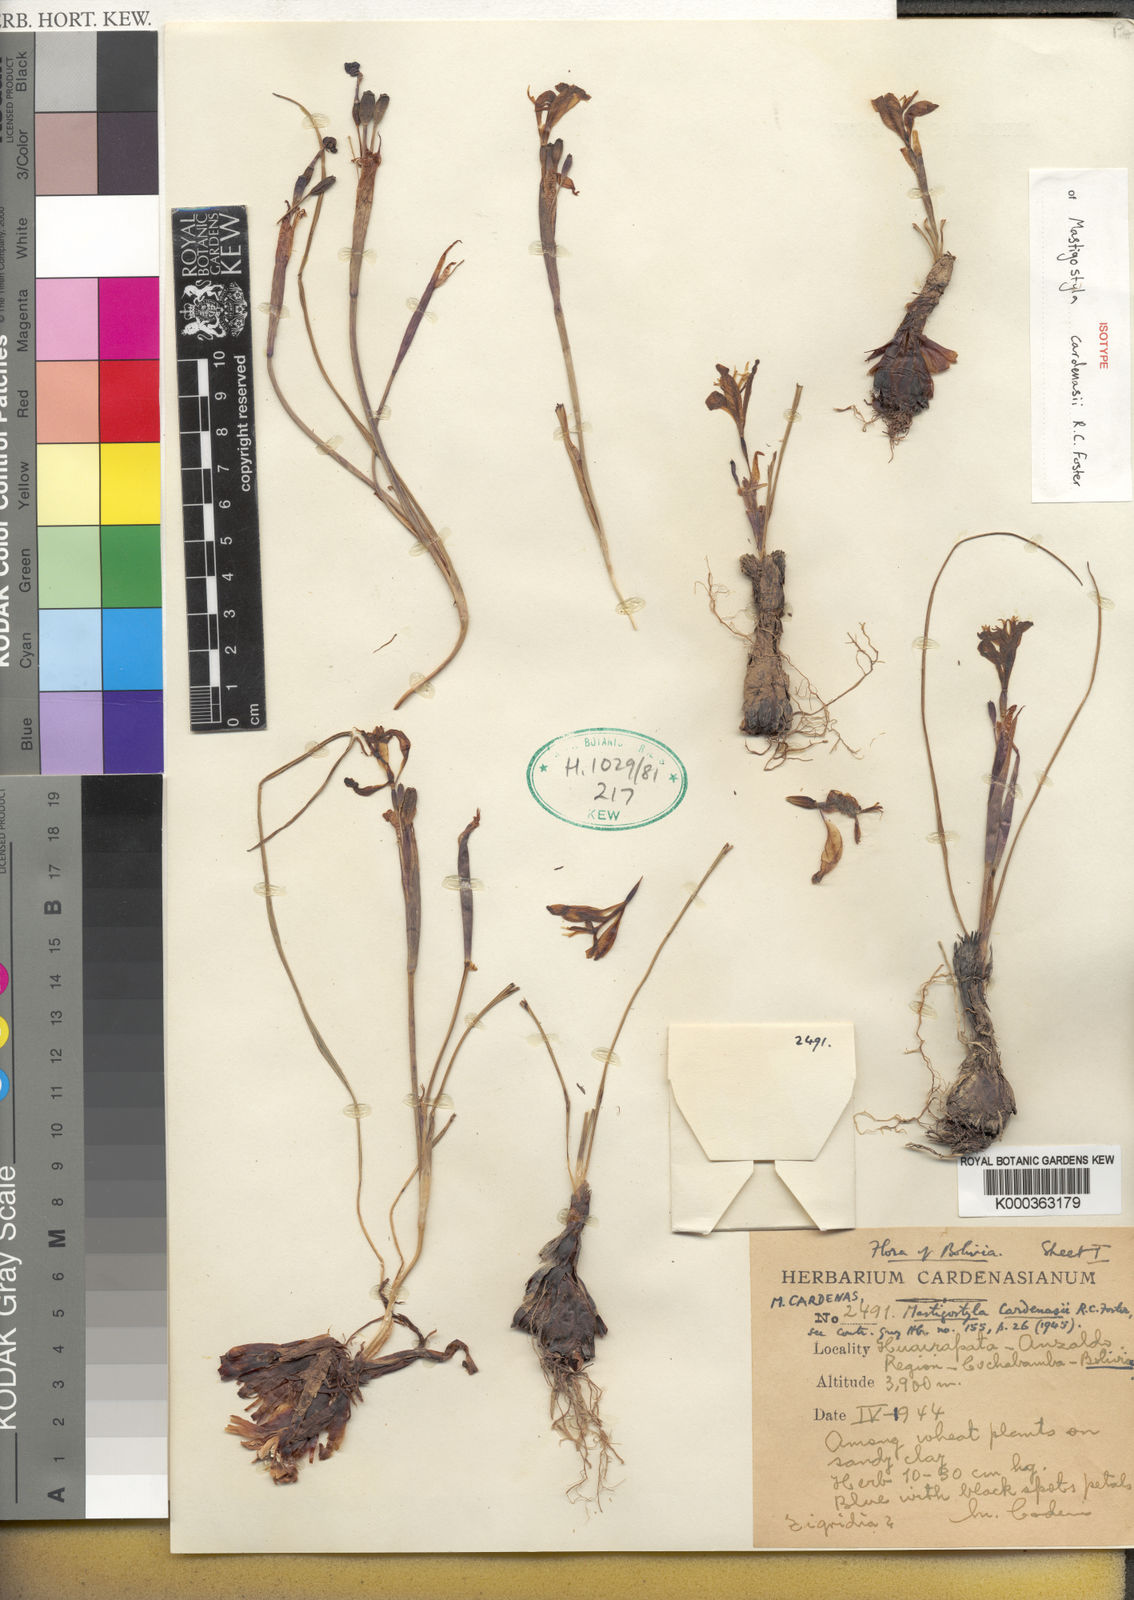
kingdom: Plantae
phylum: Tracheophyta
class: Liliopsida
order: Asparagales
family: Iridaceae
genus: Mastigostyla
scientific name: Mastigostyla cardenasii
